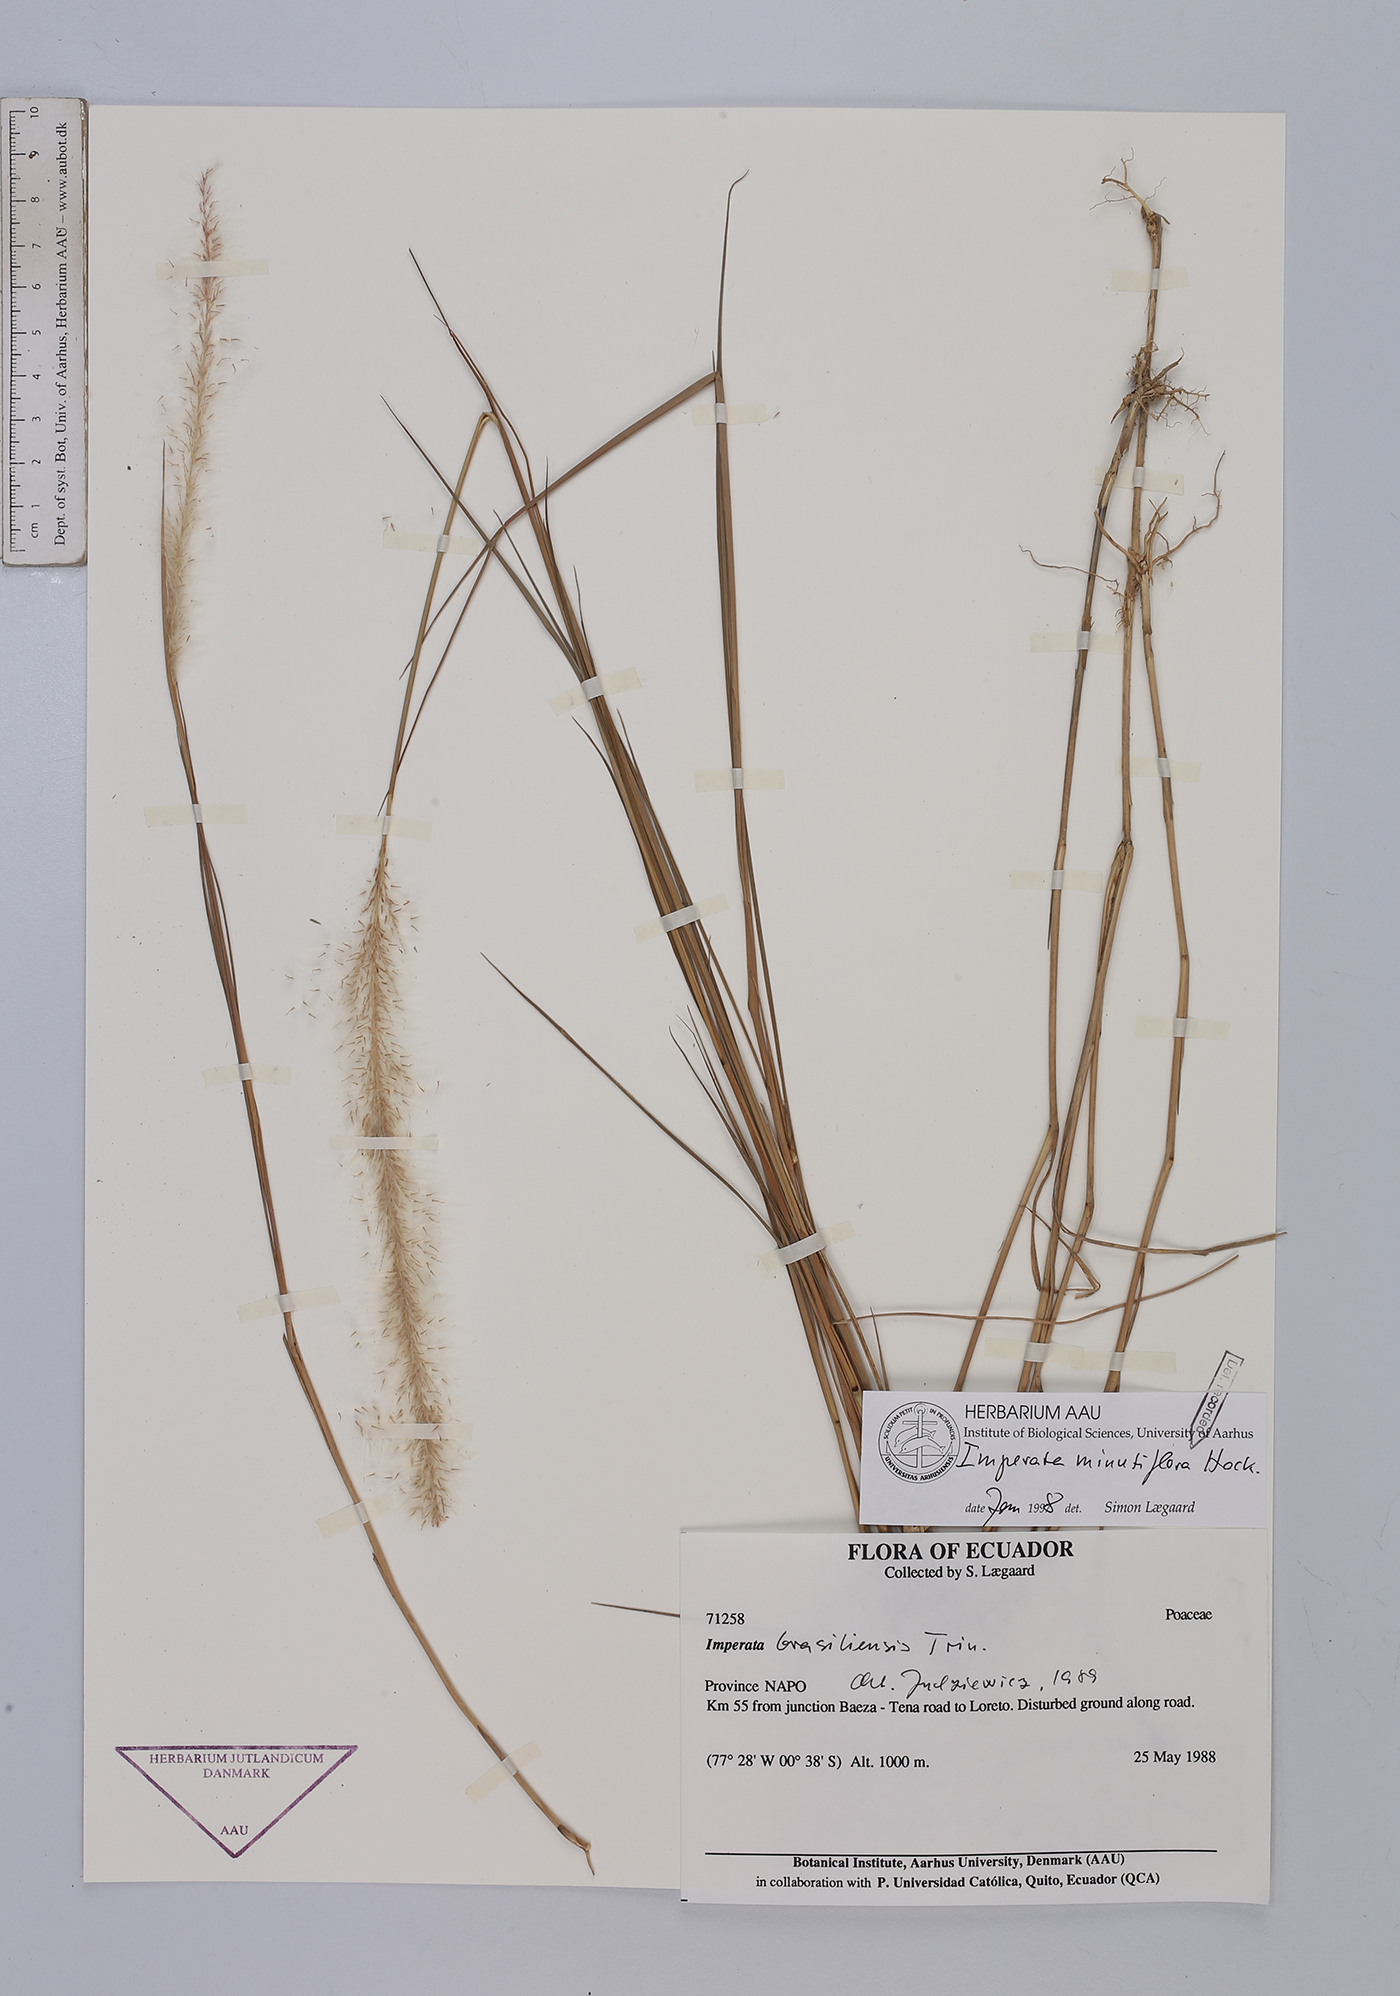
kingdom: Plantae
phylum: Tracheophyta
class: Liliopsida
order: Poales
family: Poaceae
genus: Imperata
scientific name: Imperata minutiflora
